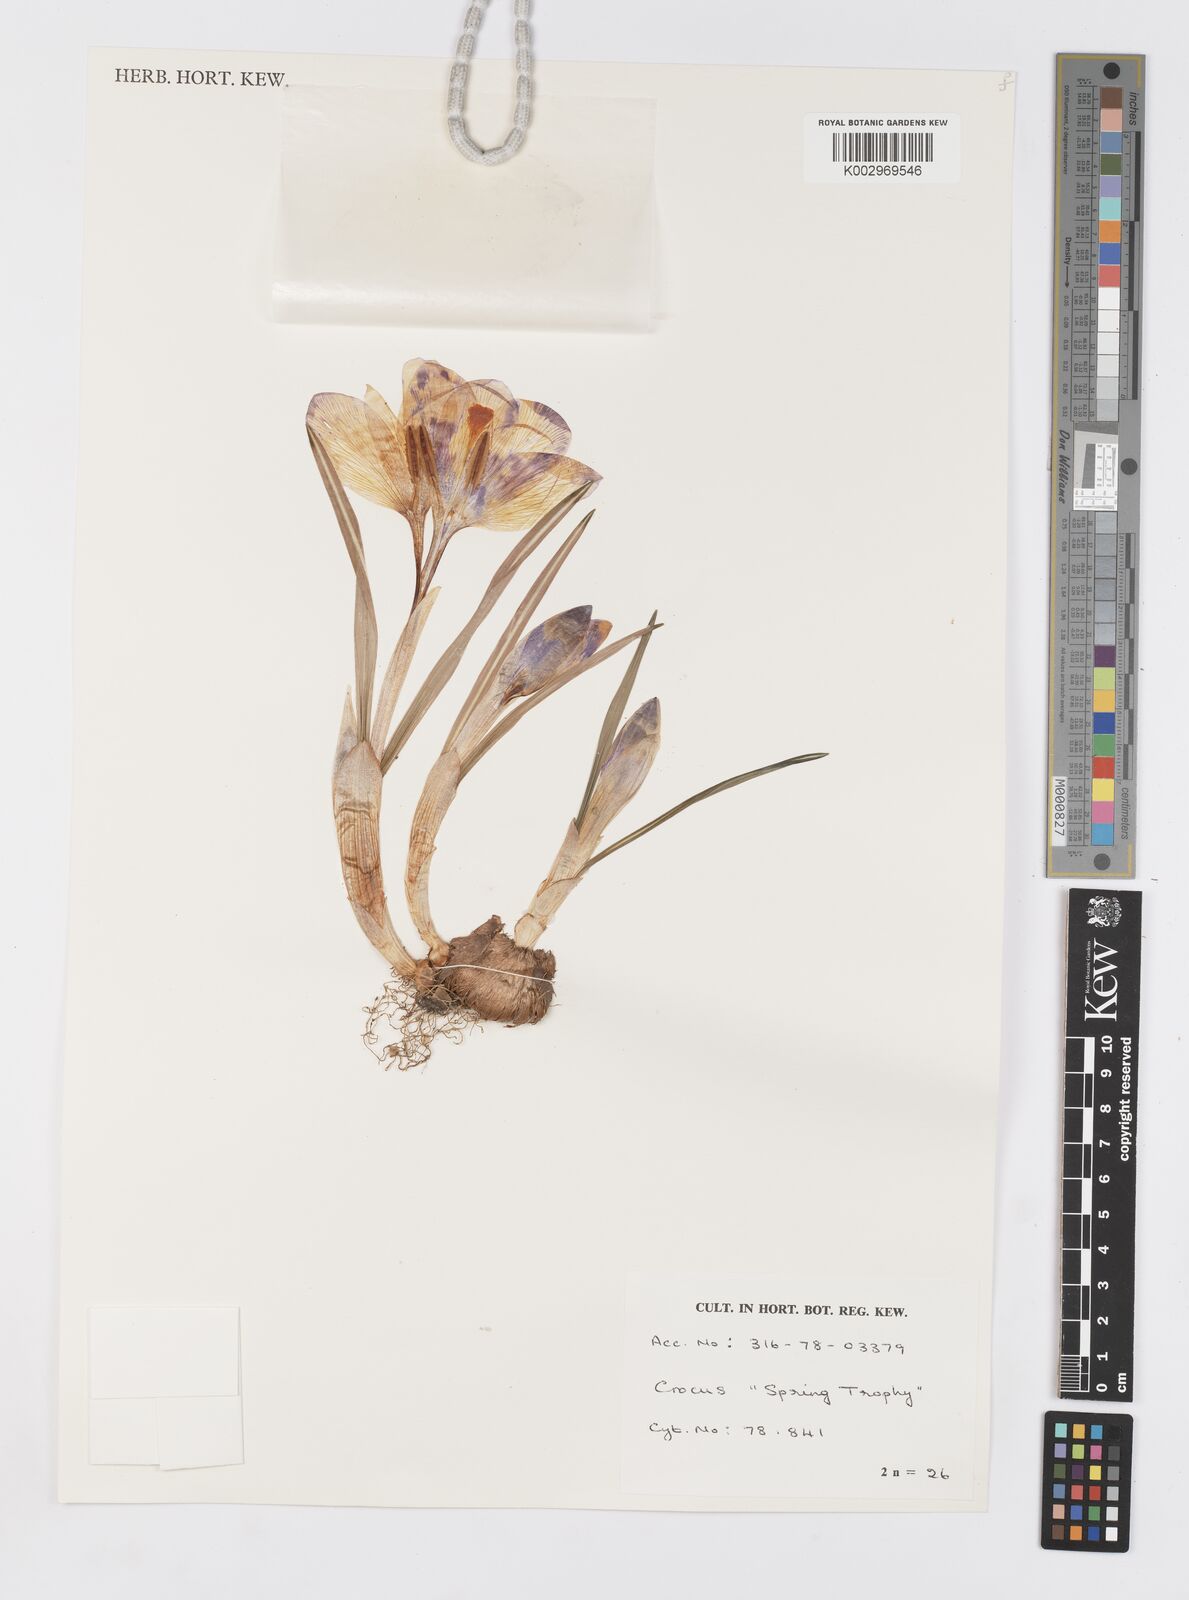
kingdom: Plantae
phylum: Tracheophyta
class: Liliopsida
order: Asparagales
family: Iridaceae
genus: Crocus
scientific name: Crocus vernus
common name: Spring crocus
